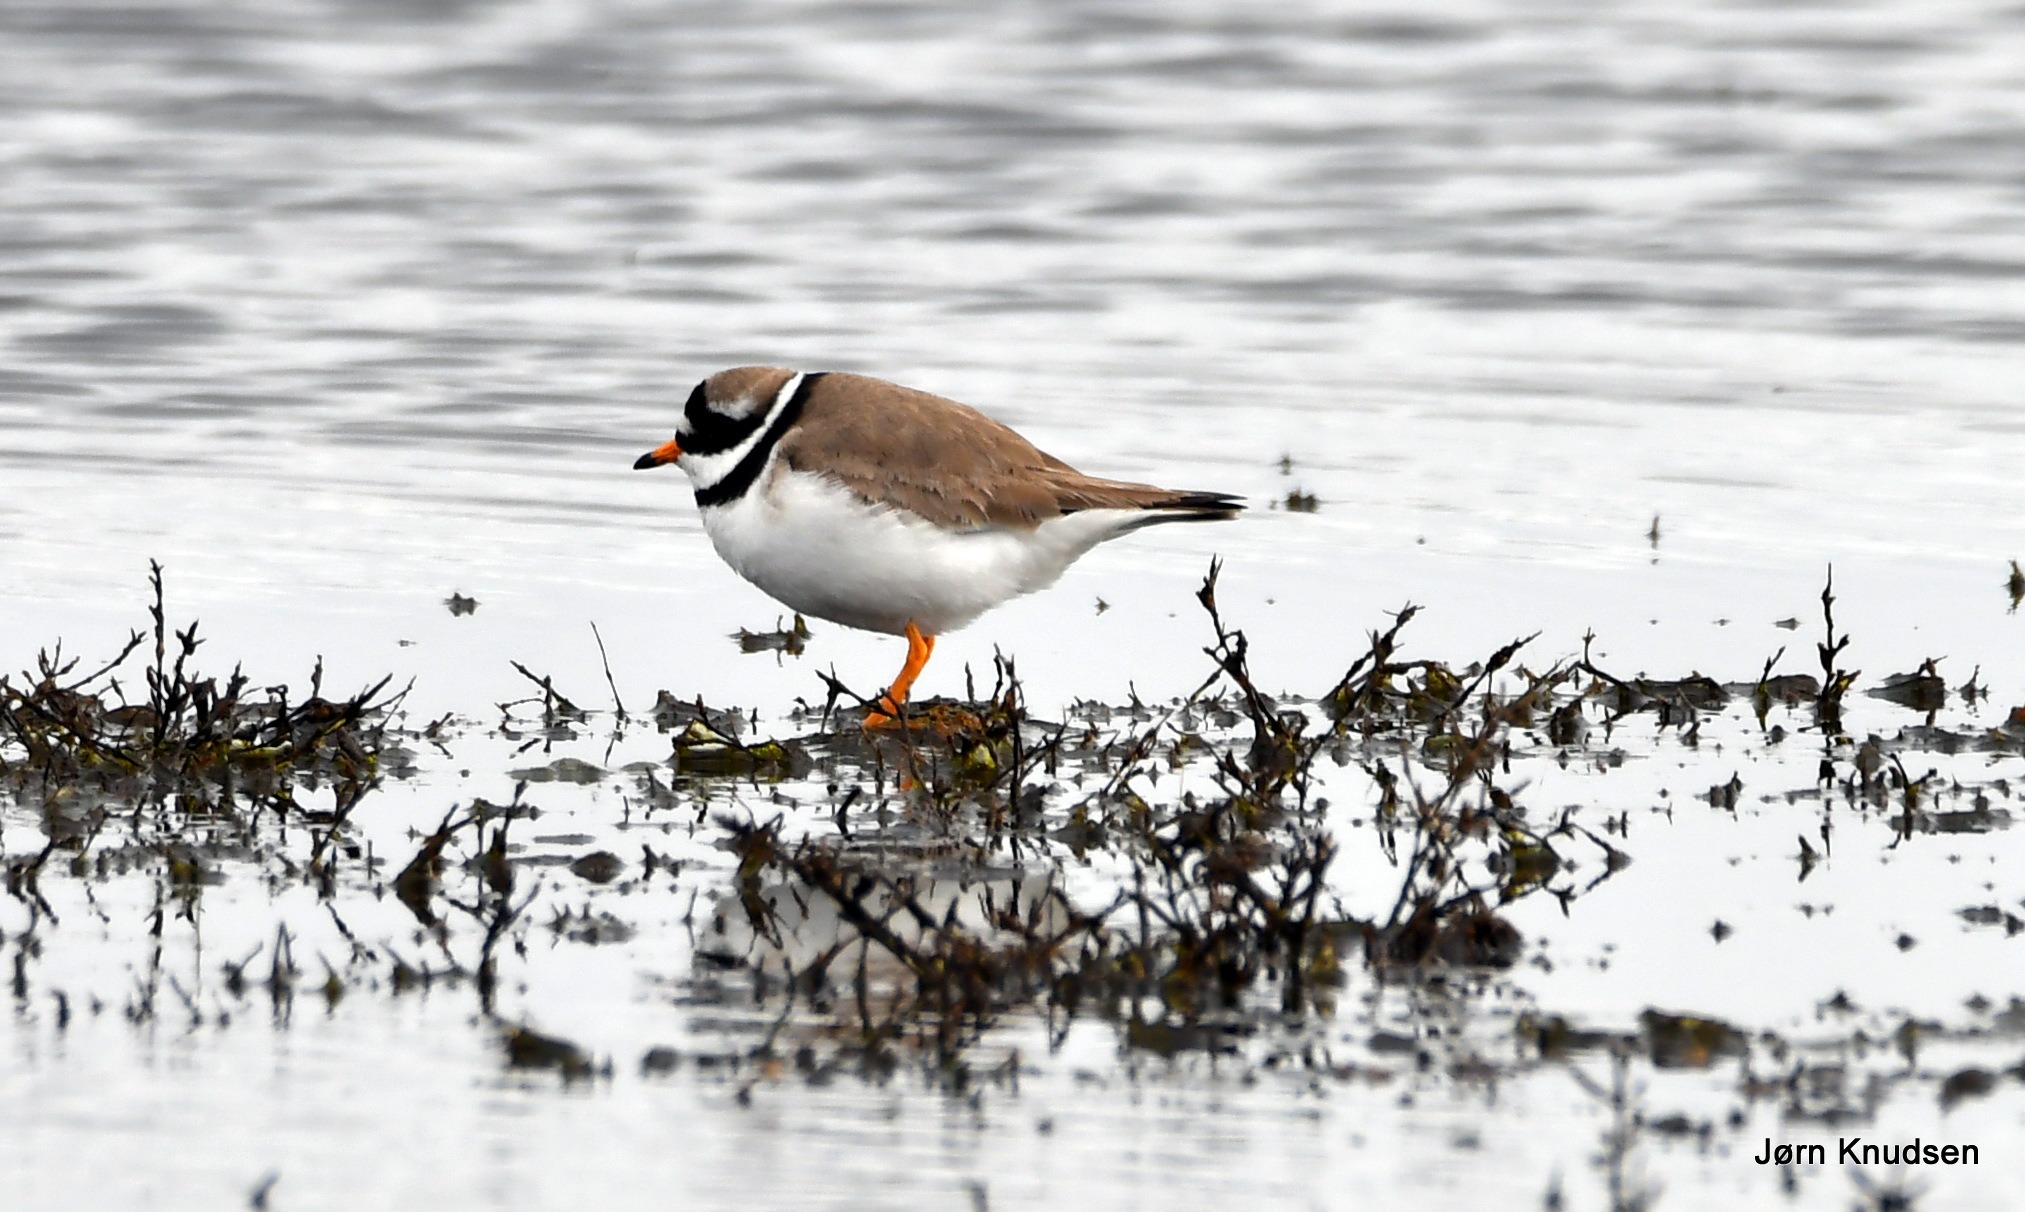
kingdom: Animalia
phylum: Chordata
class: Aves
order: Charadriiformes
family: Charadriidae
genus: Charadrius
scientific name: Charadrius hiaticula
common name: Stor præstekrave
